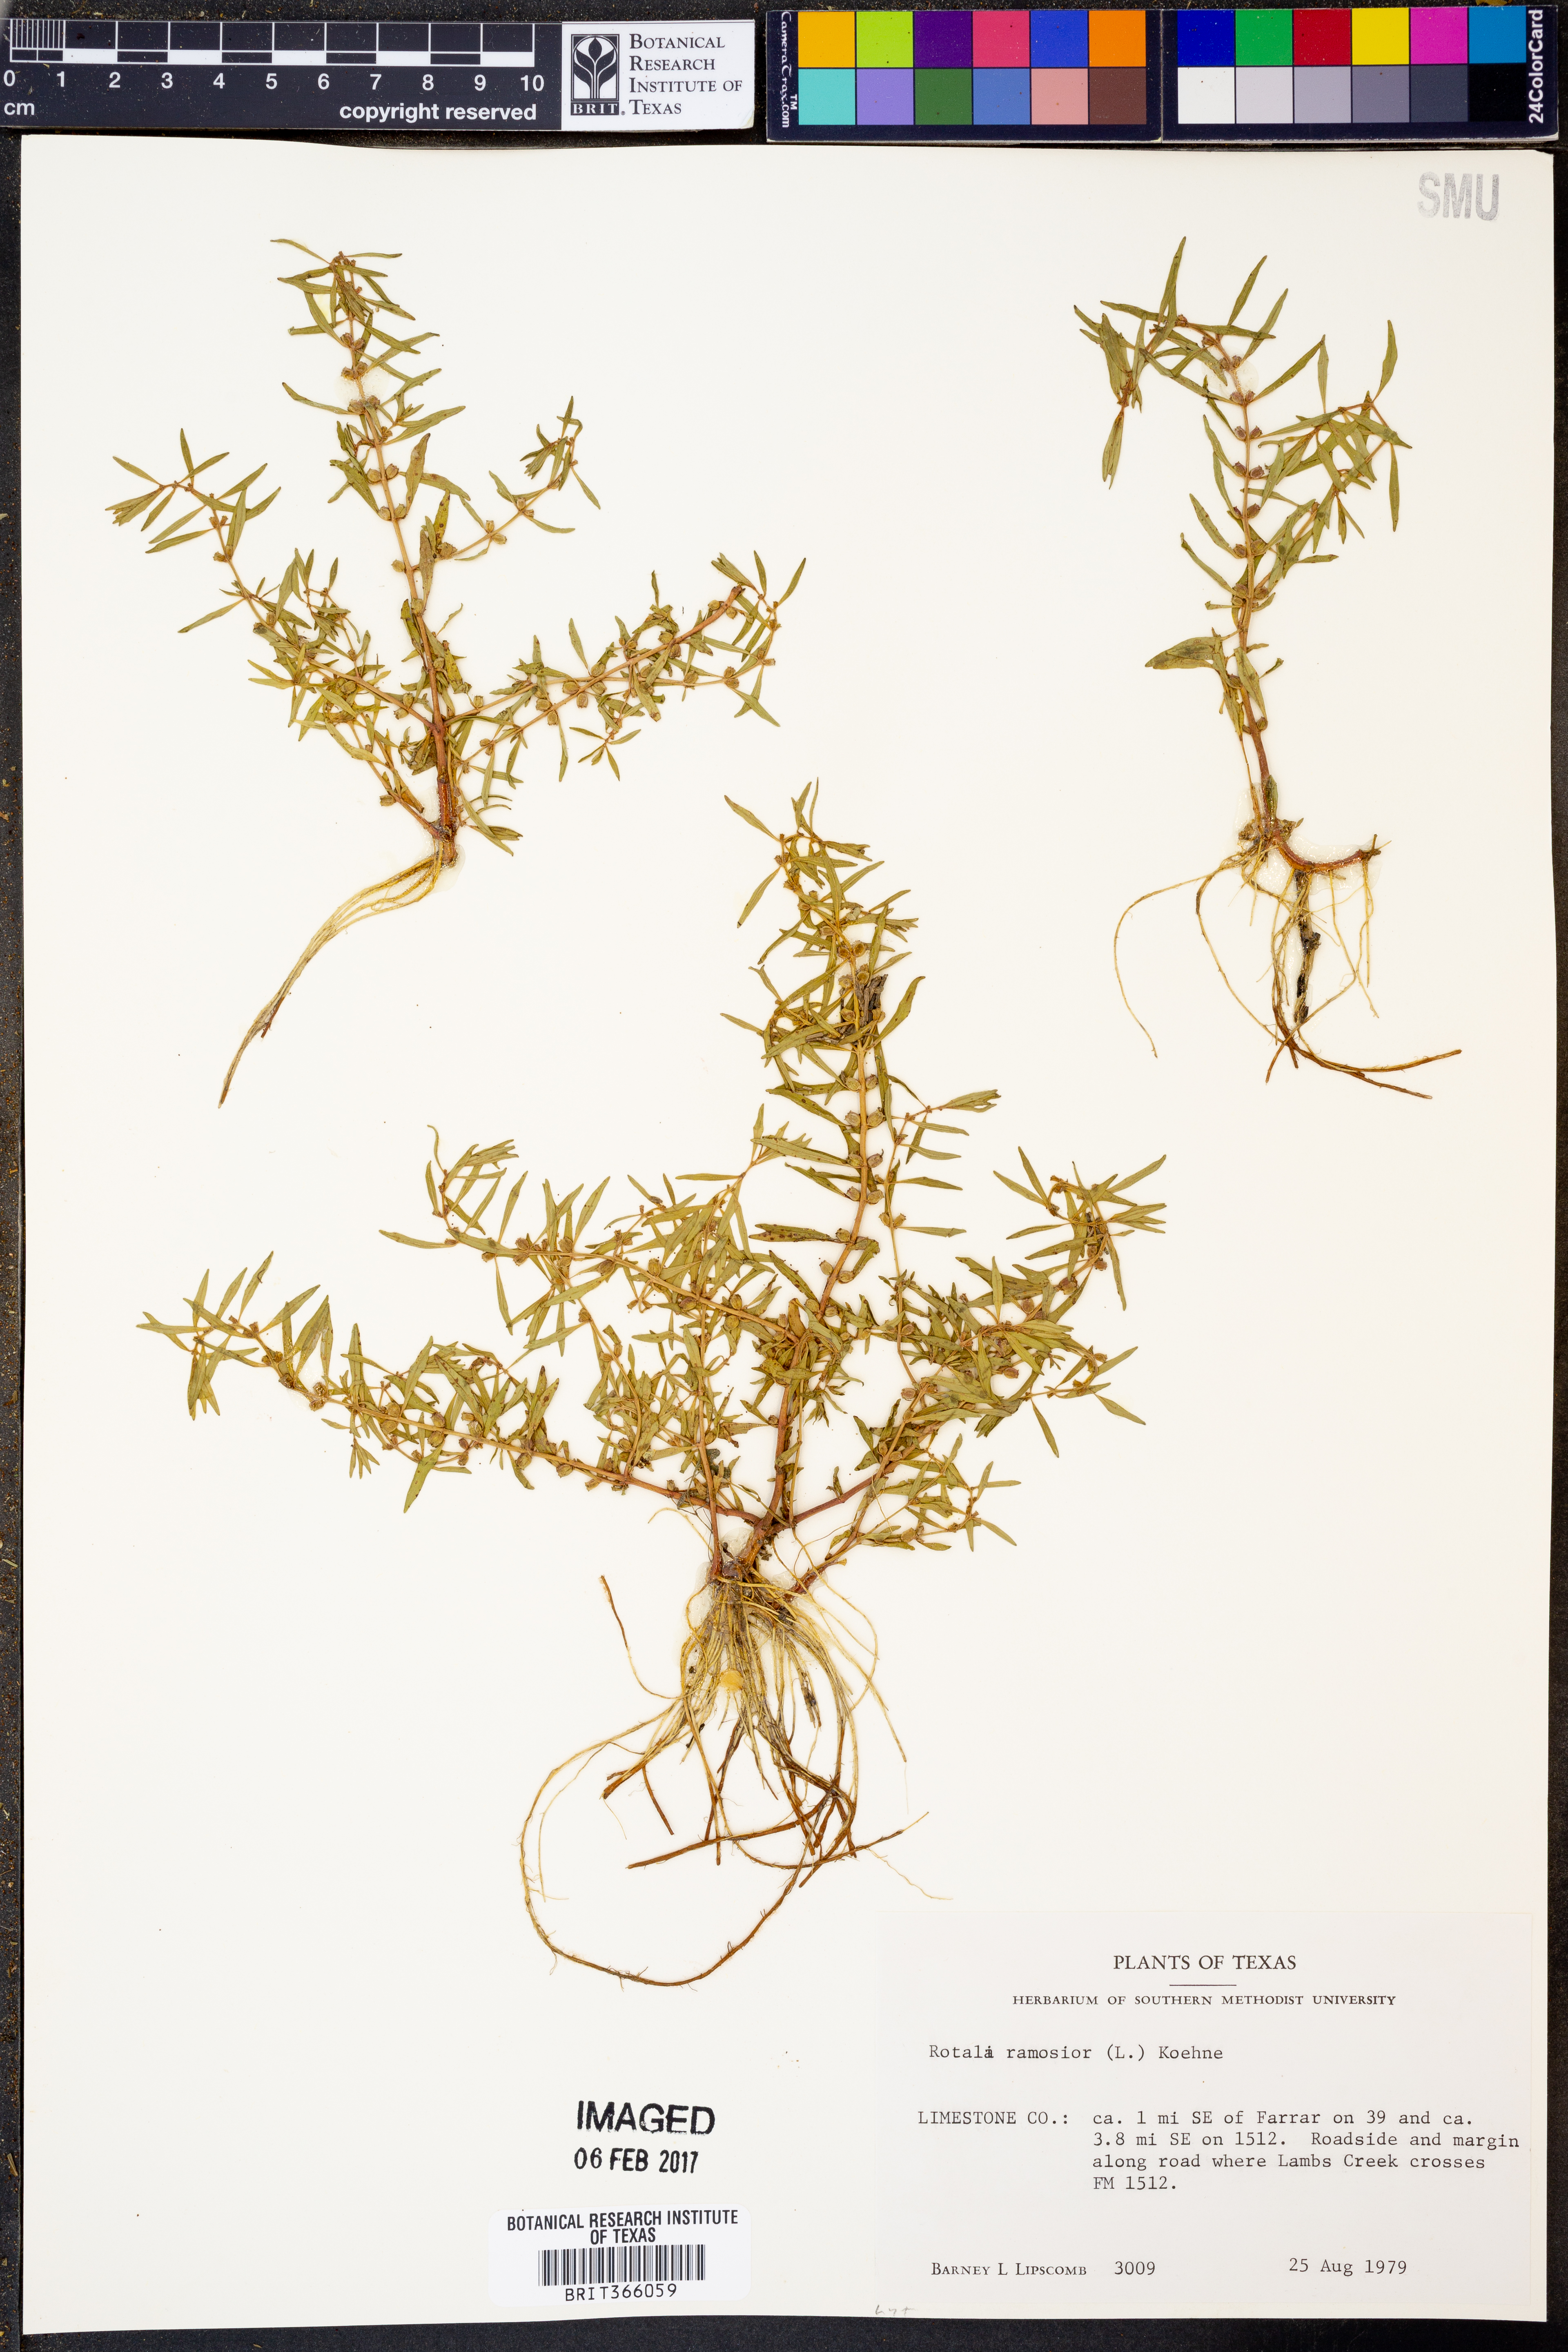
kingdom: Plantae
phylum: Tracheophyta
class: Magnoliopsida
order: Myrtales
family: Lythraceae
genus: Rotala
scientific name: Rotala ramosior
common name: Lowland rotala
